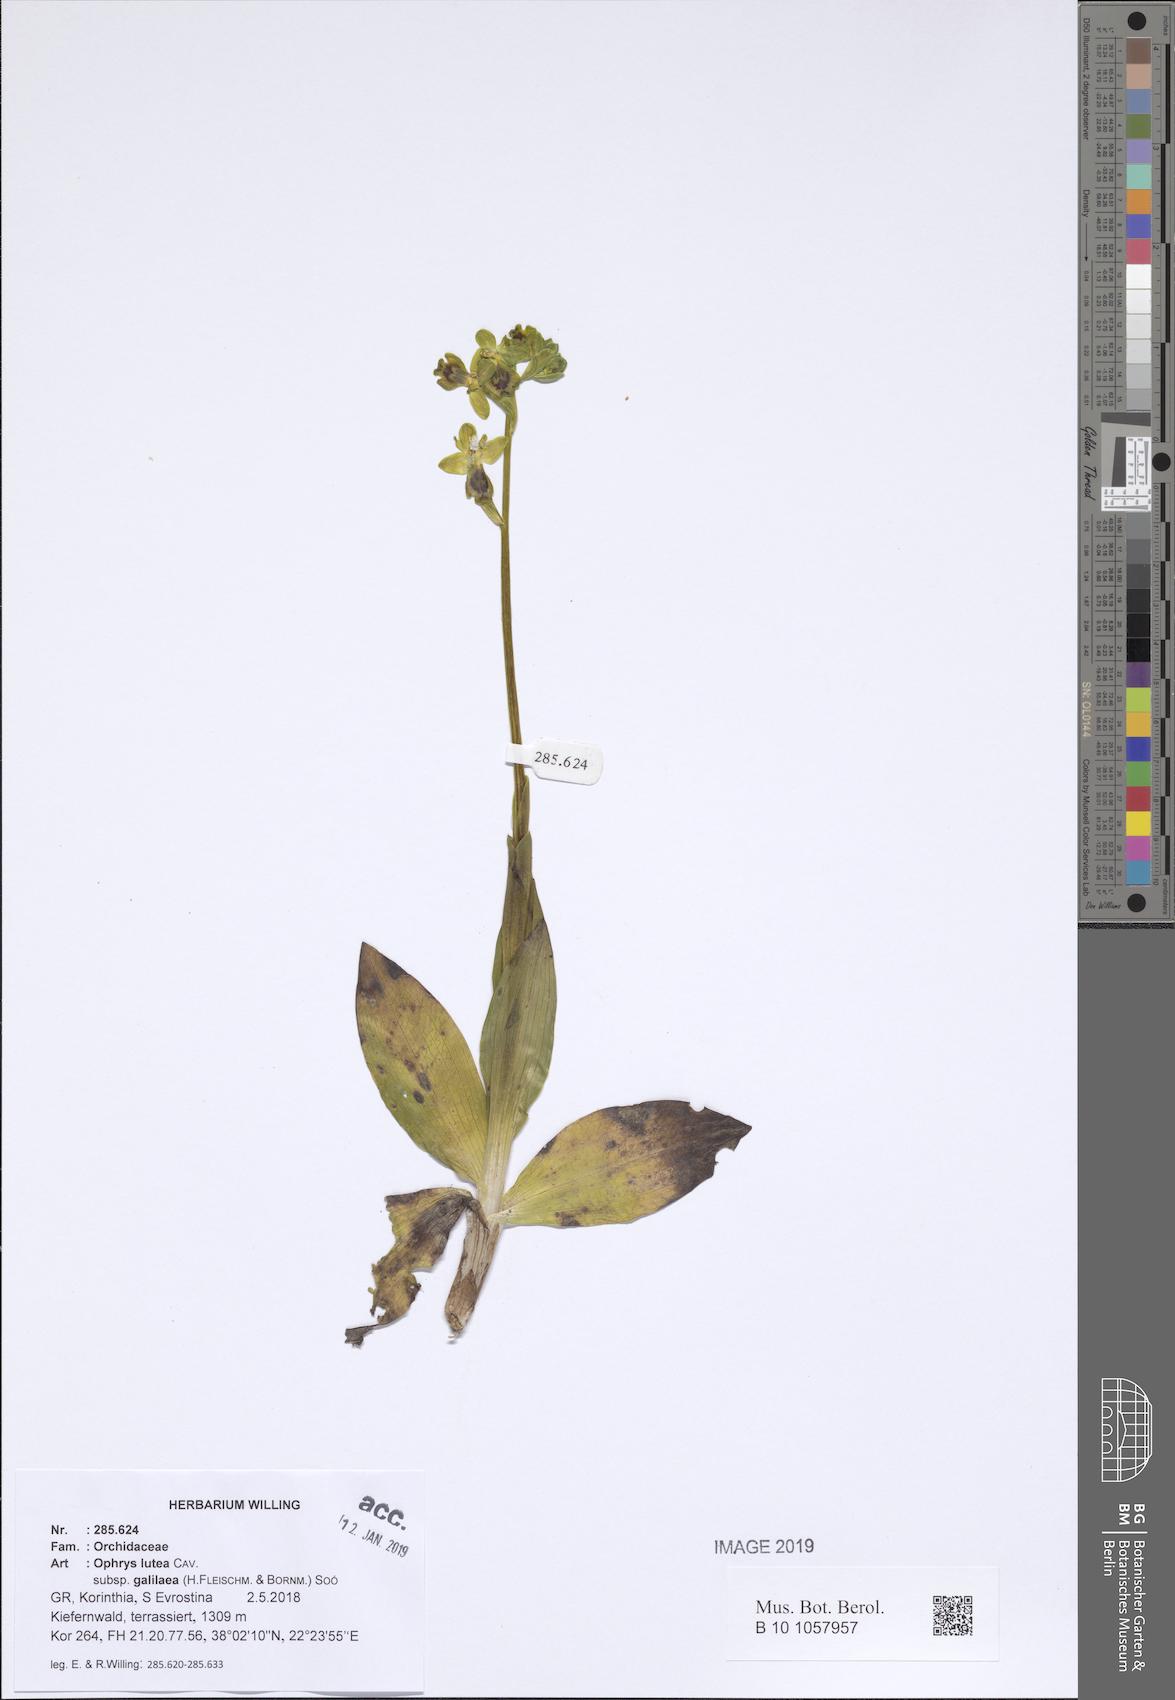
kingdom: Plantae
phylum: Tracheophyta
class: Liliopsida
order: Asparagales
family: Orchidaceae
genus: Ophrys
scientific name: Ophrys lutea
